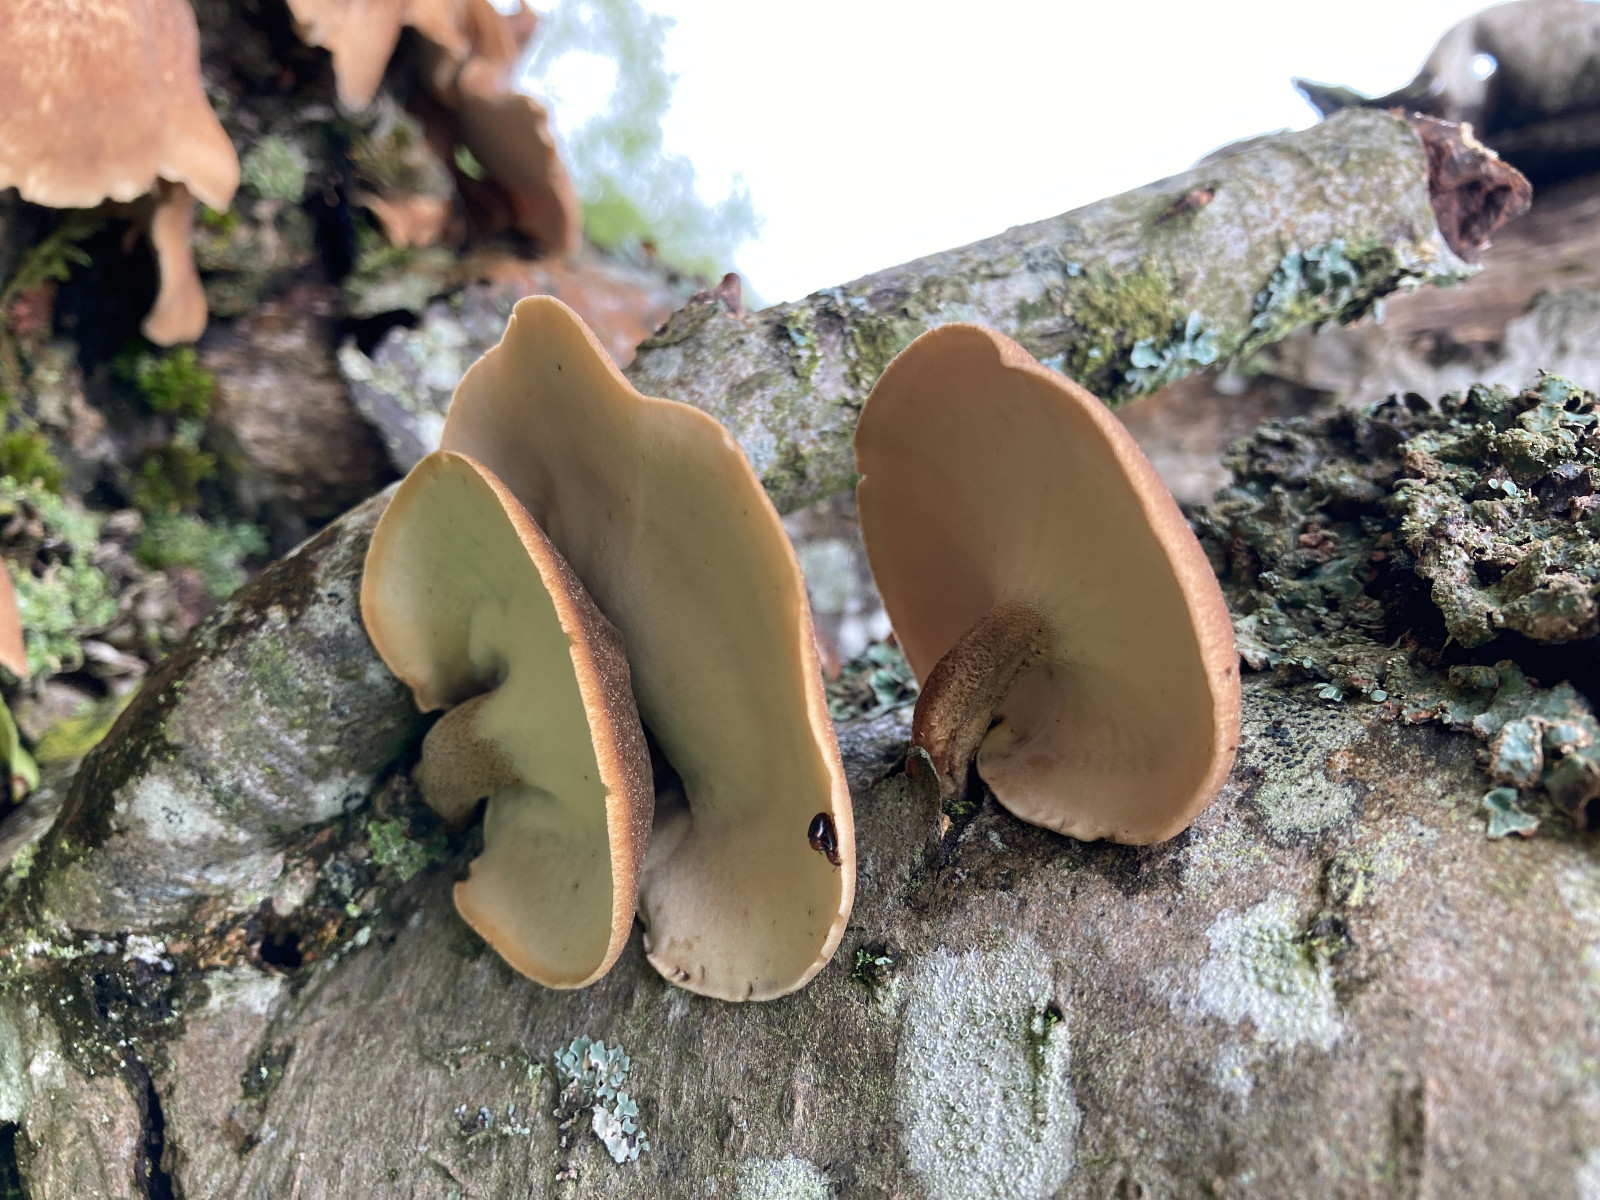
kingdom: Fungi
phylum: Basidiomycota
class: Agaricomycetes
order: Polyporales
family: Polyporaceae
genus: Cerioporus
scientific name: Cerioporus varius
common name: foranderlig stilkporesvamp
